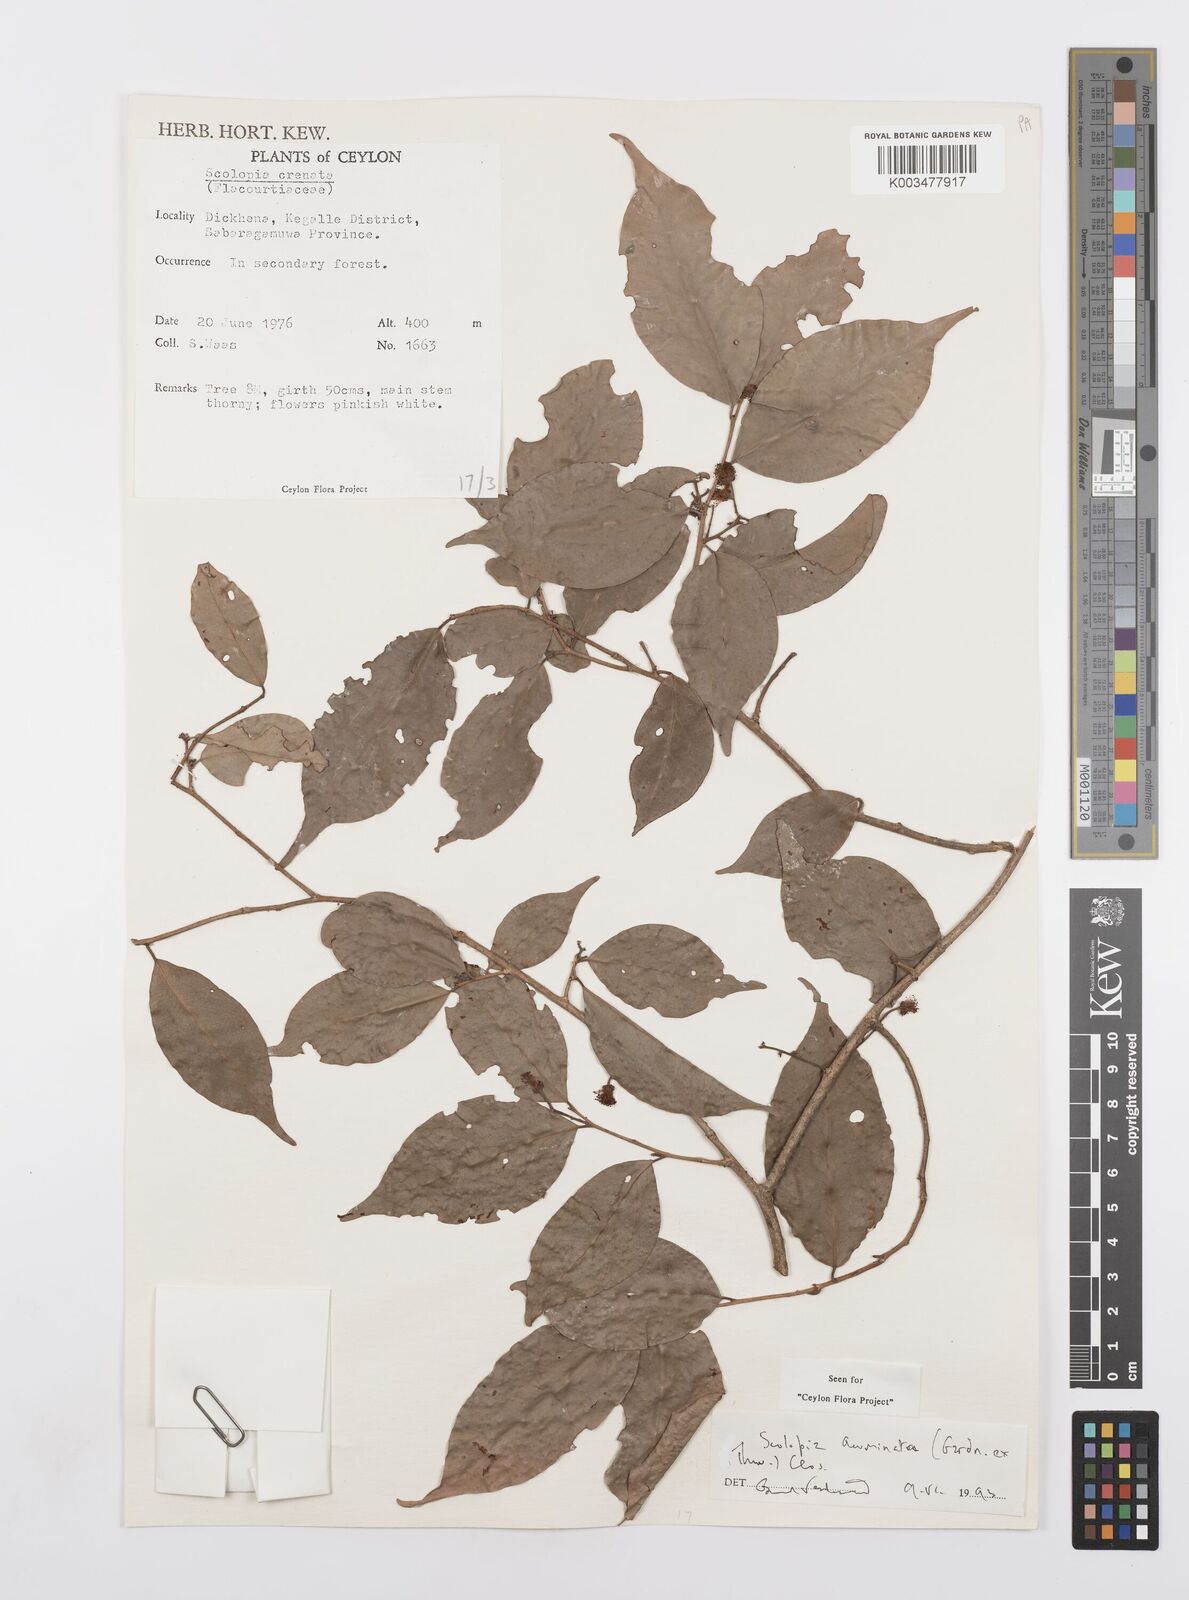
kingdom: Plantae
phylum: Tracheophyta
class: Magnoliopsida
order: Malpighiales
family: Salicaceae
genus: Scolopia
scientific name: Scolopia acuminata
